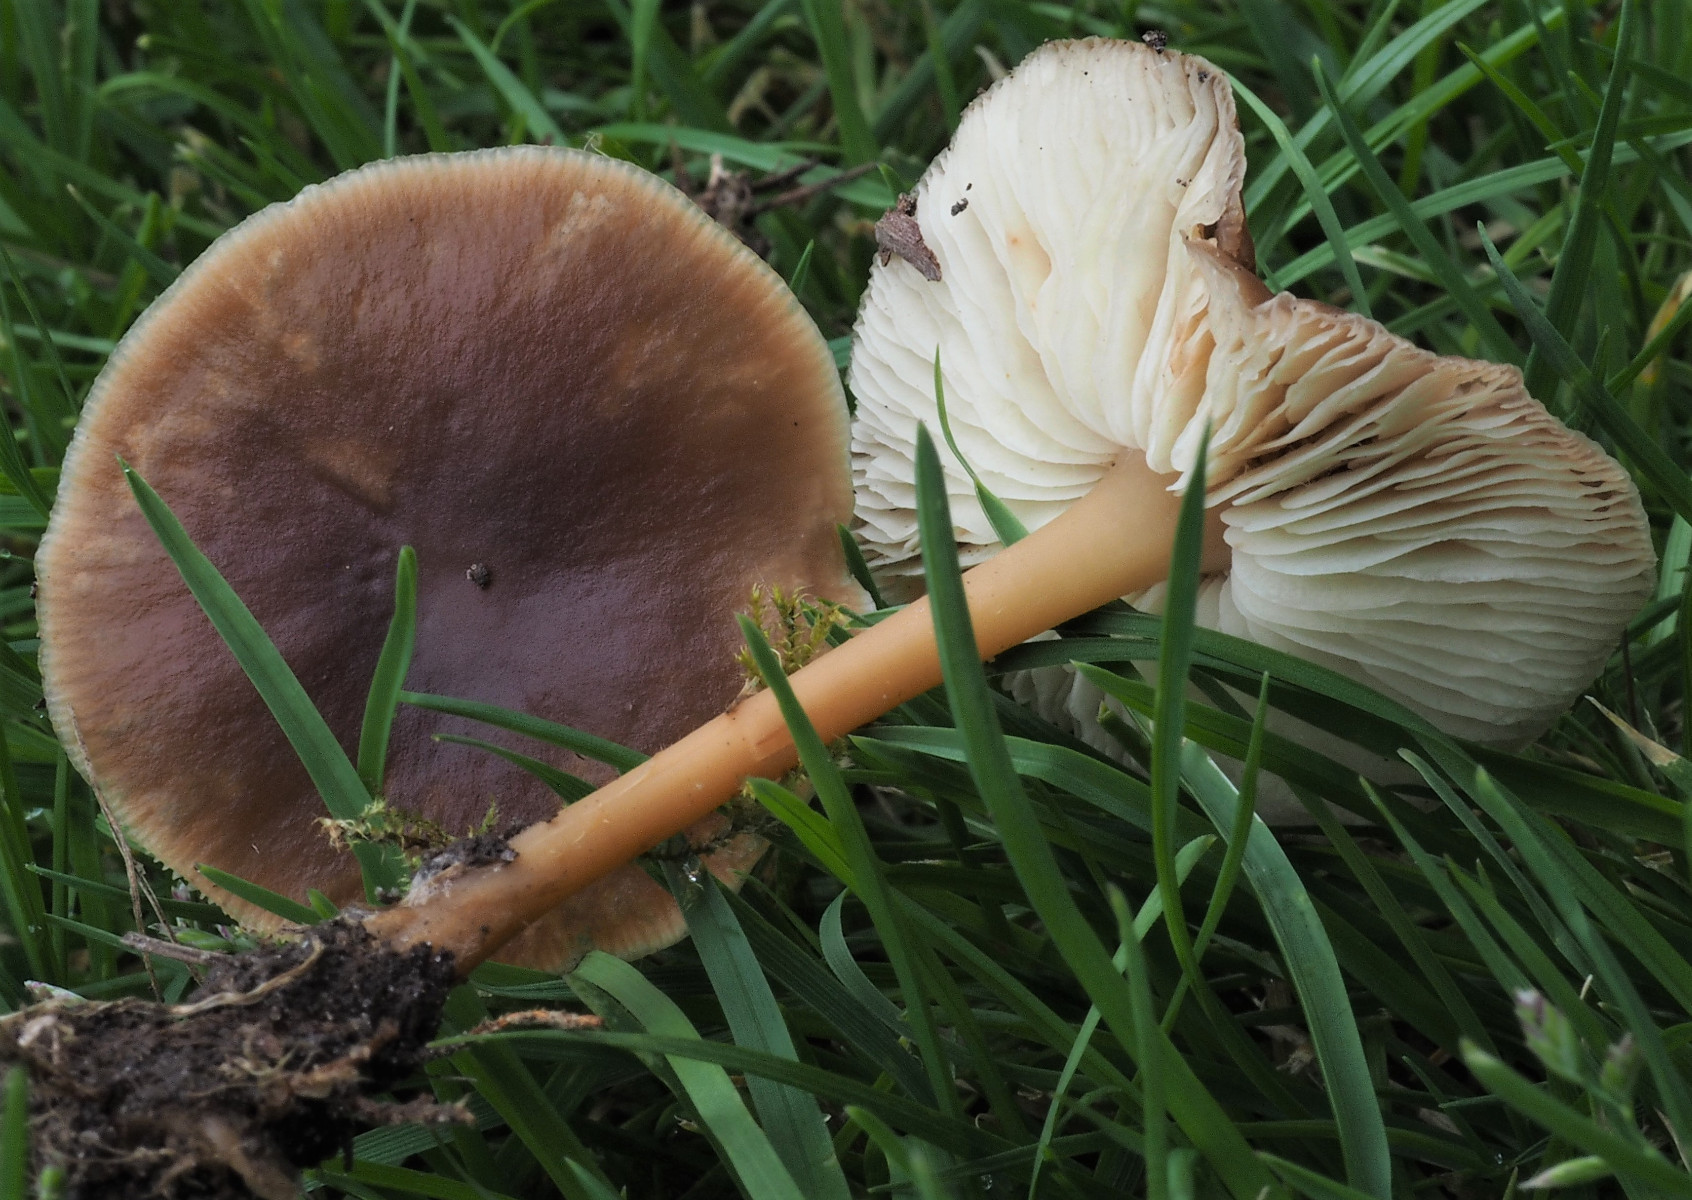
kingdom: Fungi
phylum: Basidiomycota
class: Agaricomycetes
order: Agaricales
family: Omphalotaceae
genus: Gymnopus
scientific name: Gymnopus ocior
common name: mørk fladhat
